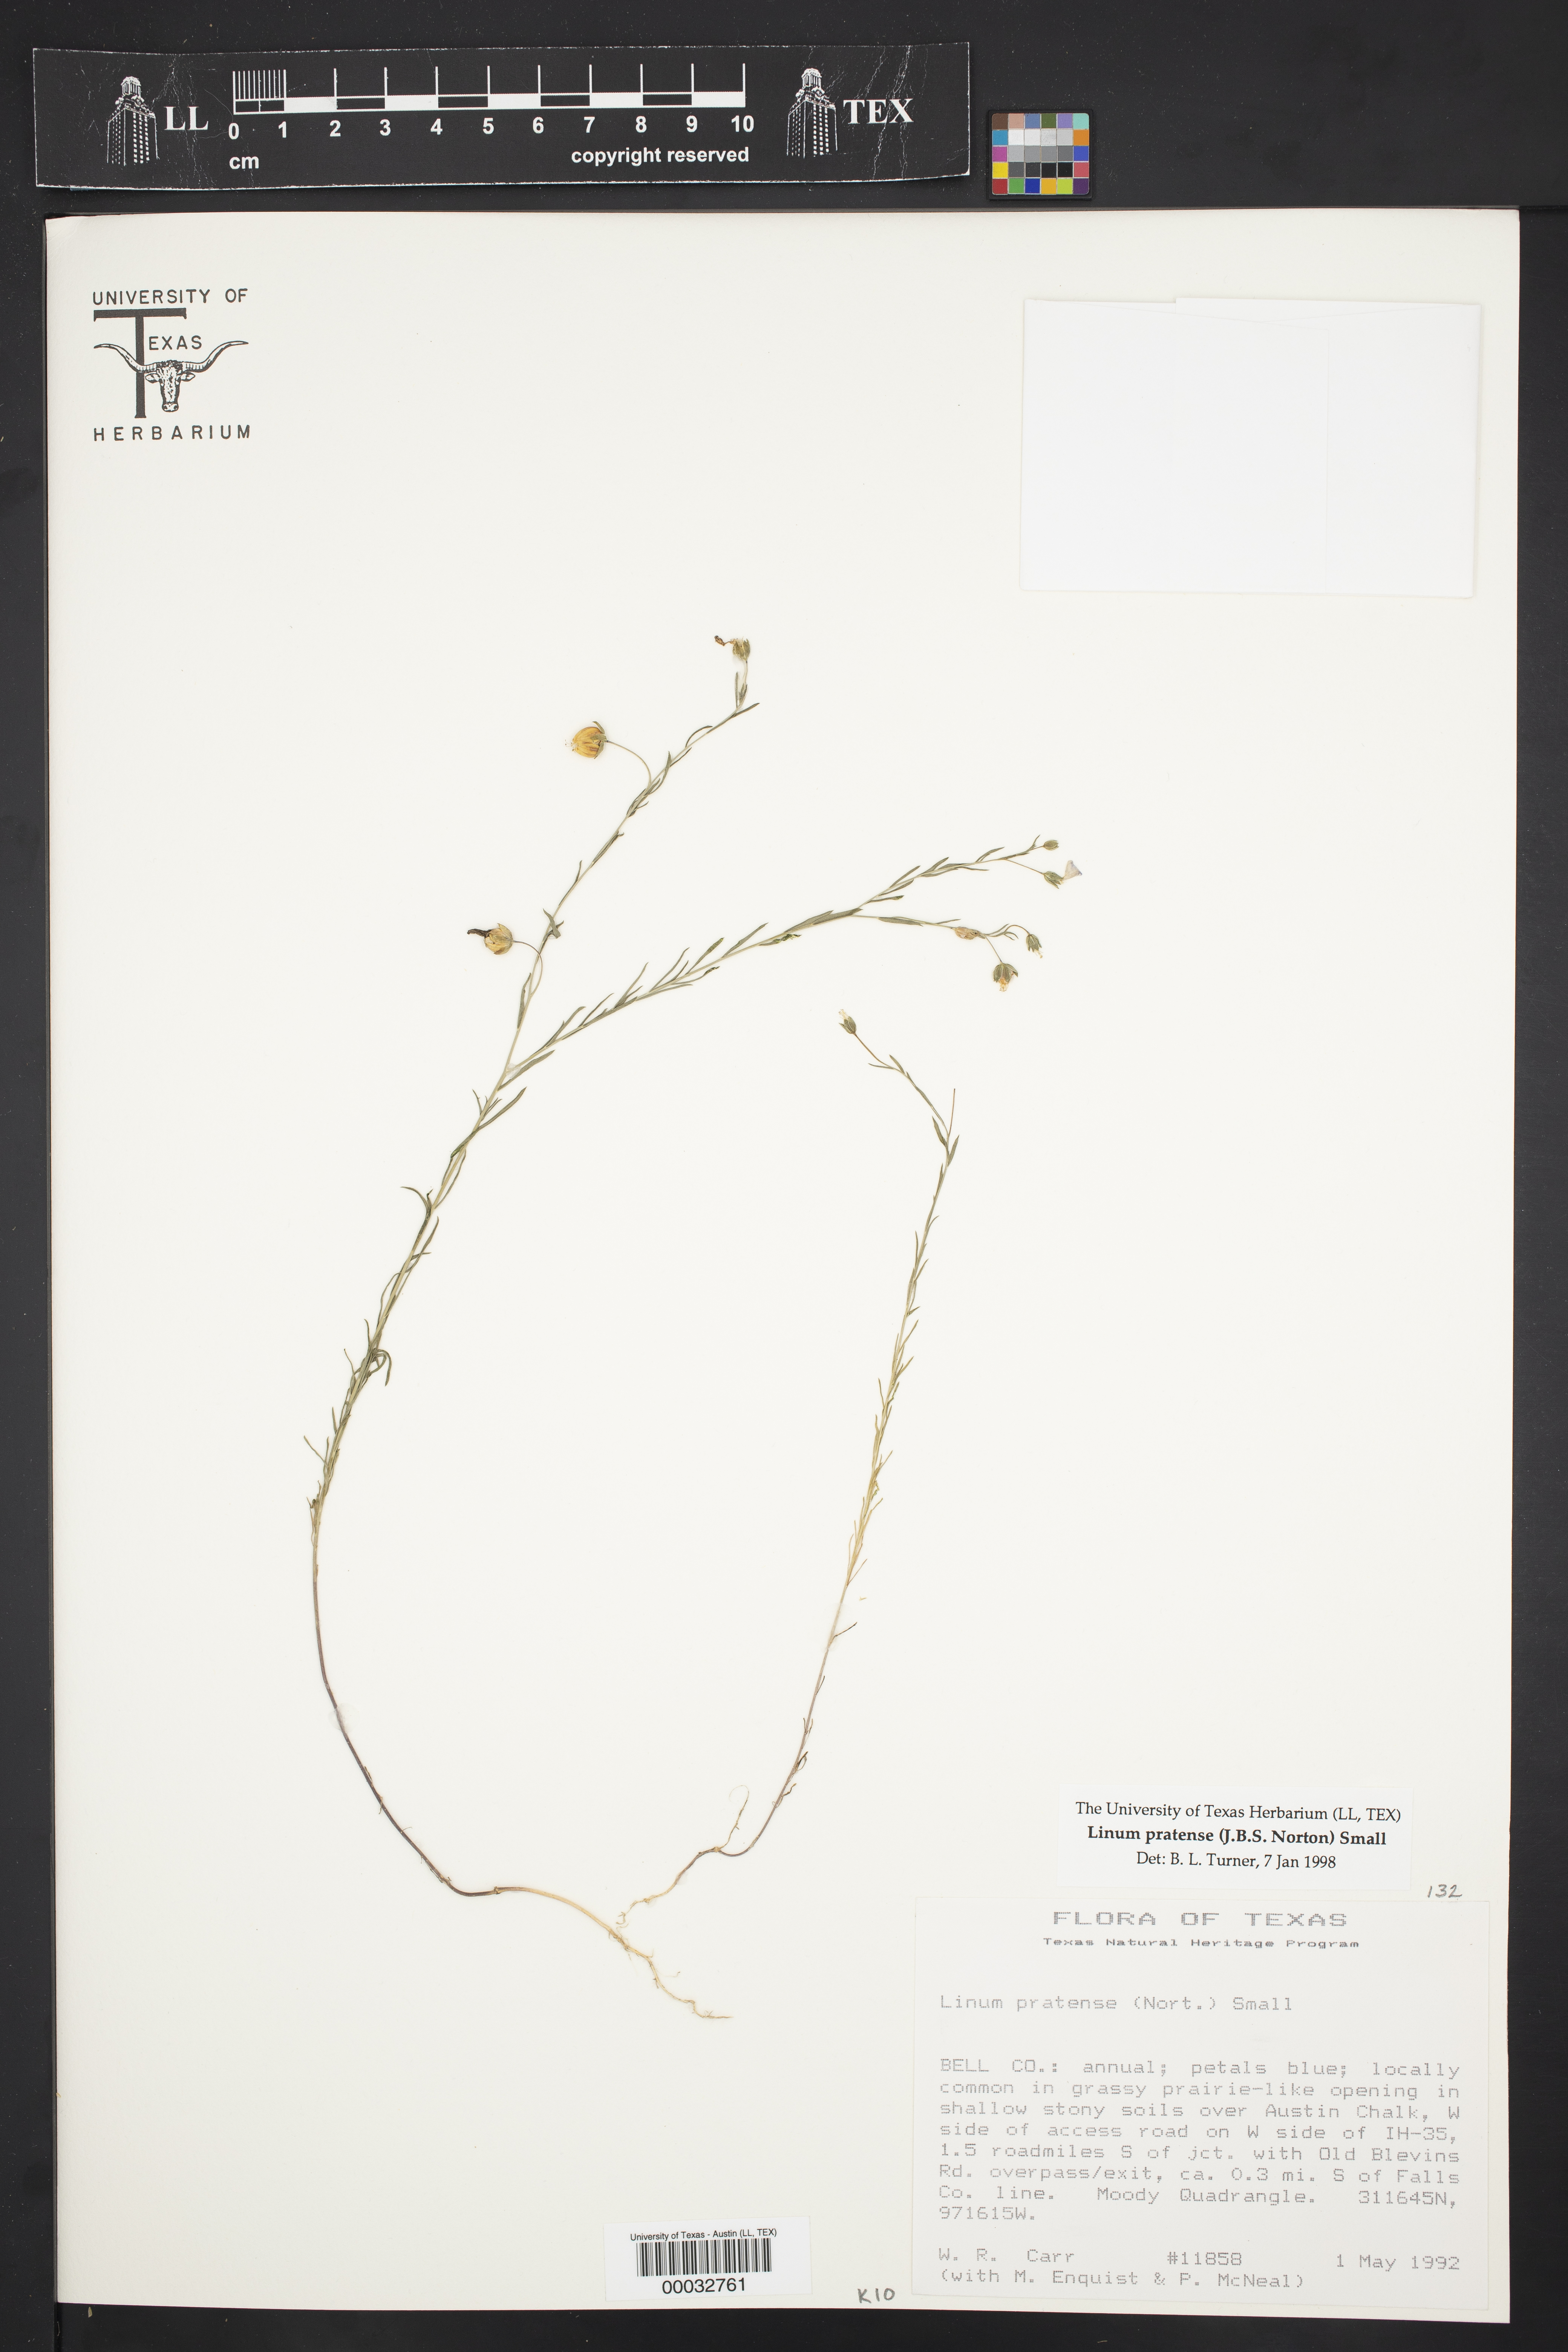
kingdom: Plantae
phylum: Tracheophyta
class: Magnoliopsida
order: Malpighiales
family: Linaceae
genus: Linum
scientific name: Linum pratense
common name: Norton's flax
